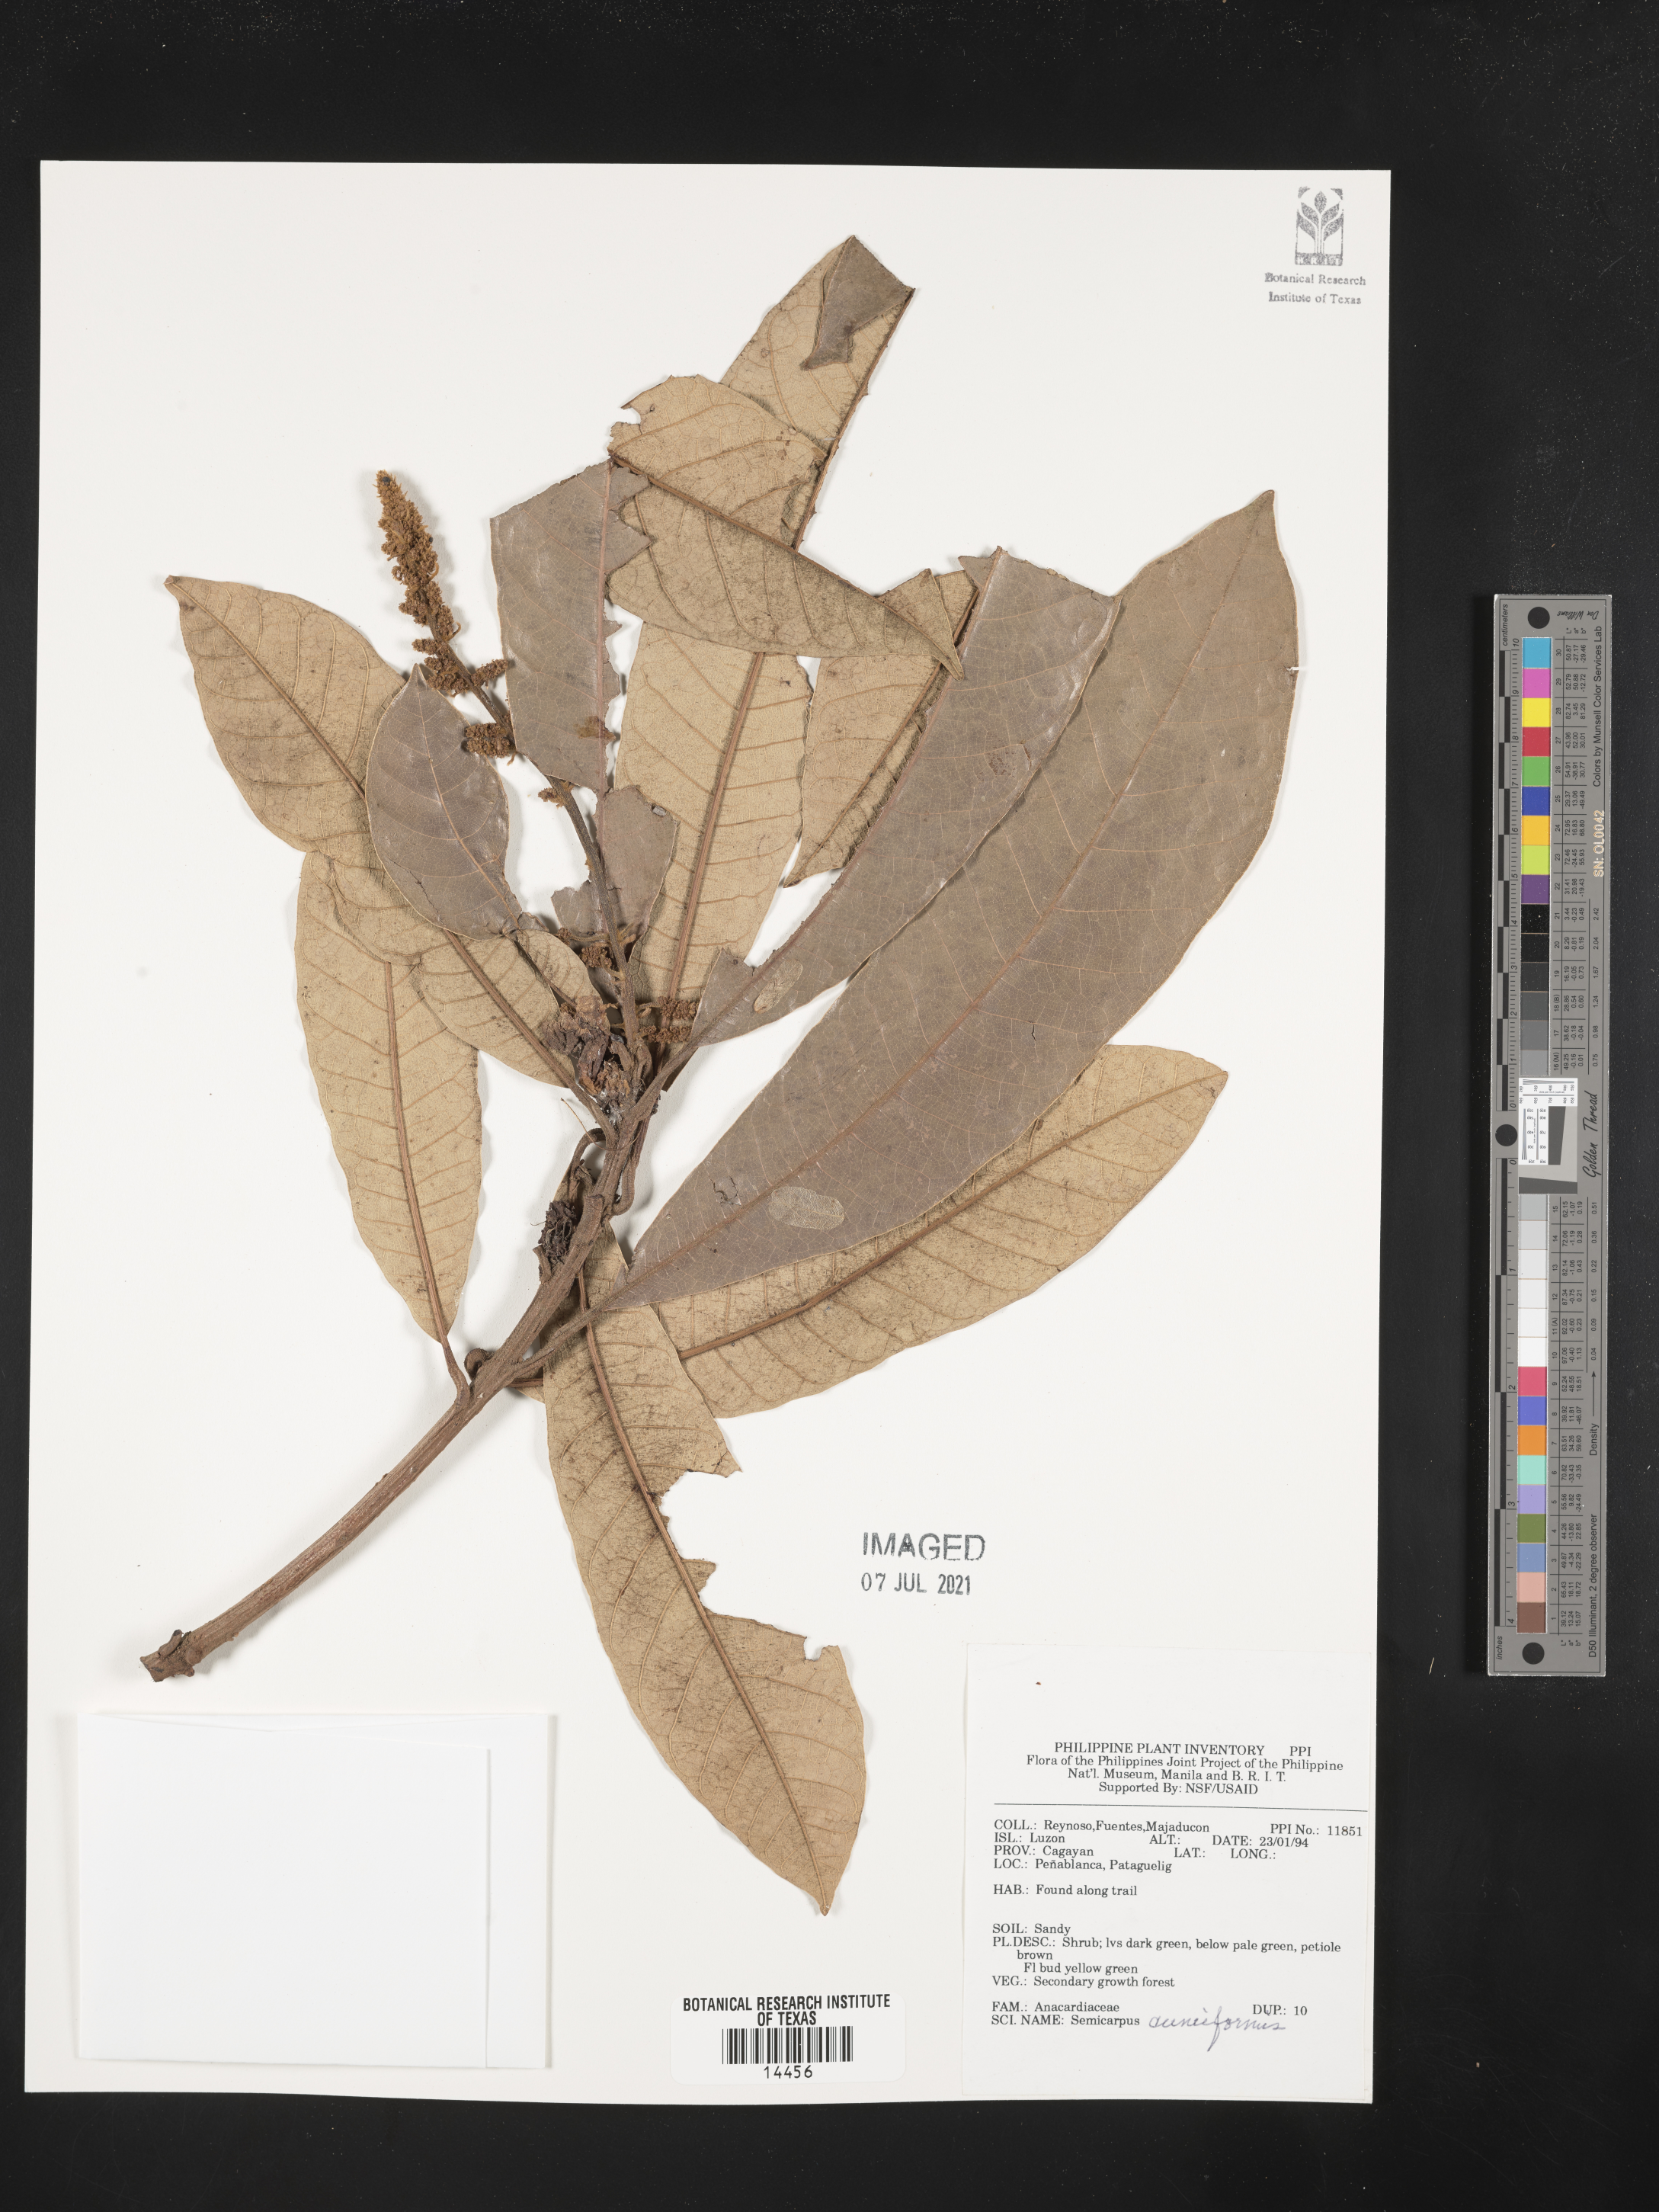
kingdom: Plantae
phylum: Tracheophyta
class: Magnoliopsida
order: Sapindales
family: Anacardiaceae
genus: Semecarpus
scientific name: Semecarpus cuneiformis
